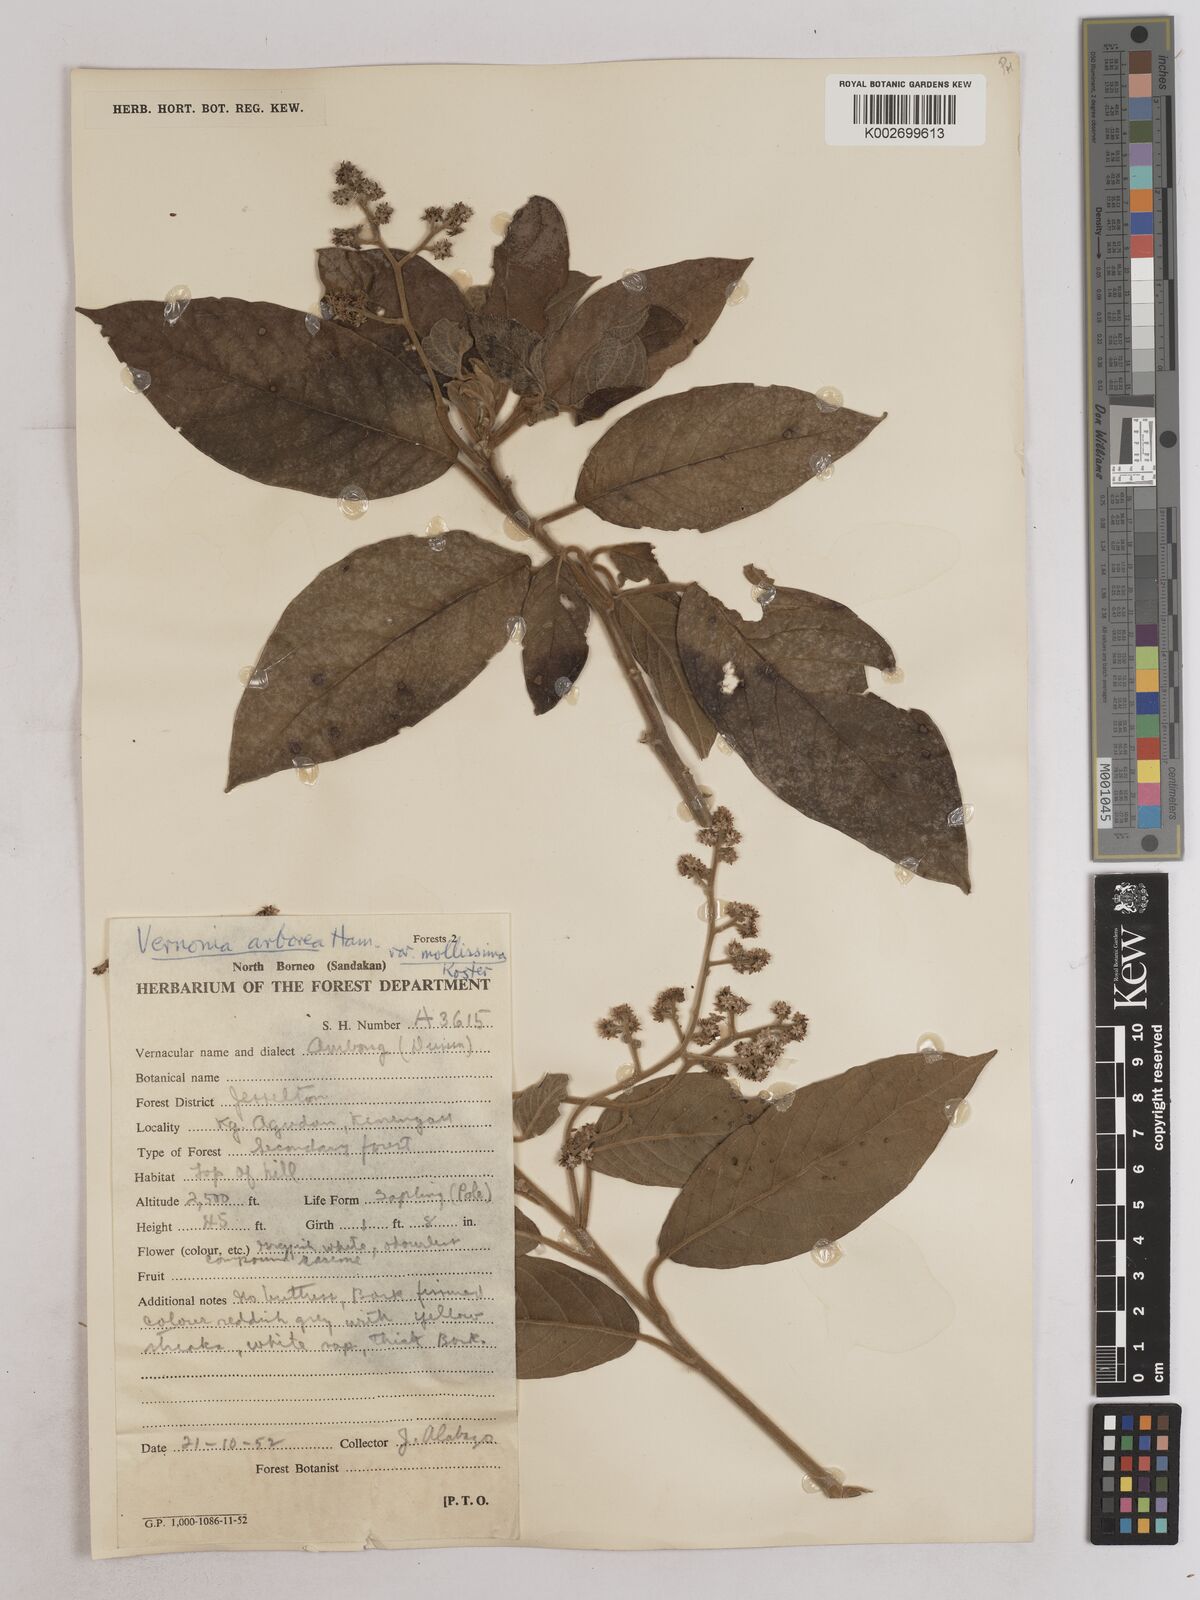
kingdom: Plantae
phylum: Tracheophyta
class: Magnoliopsida
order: Asterales
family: Asteraceae
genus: Strobocalyx
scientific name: Strobocalyx arborea
